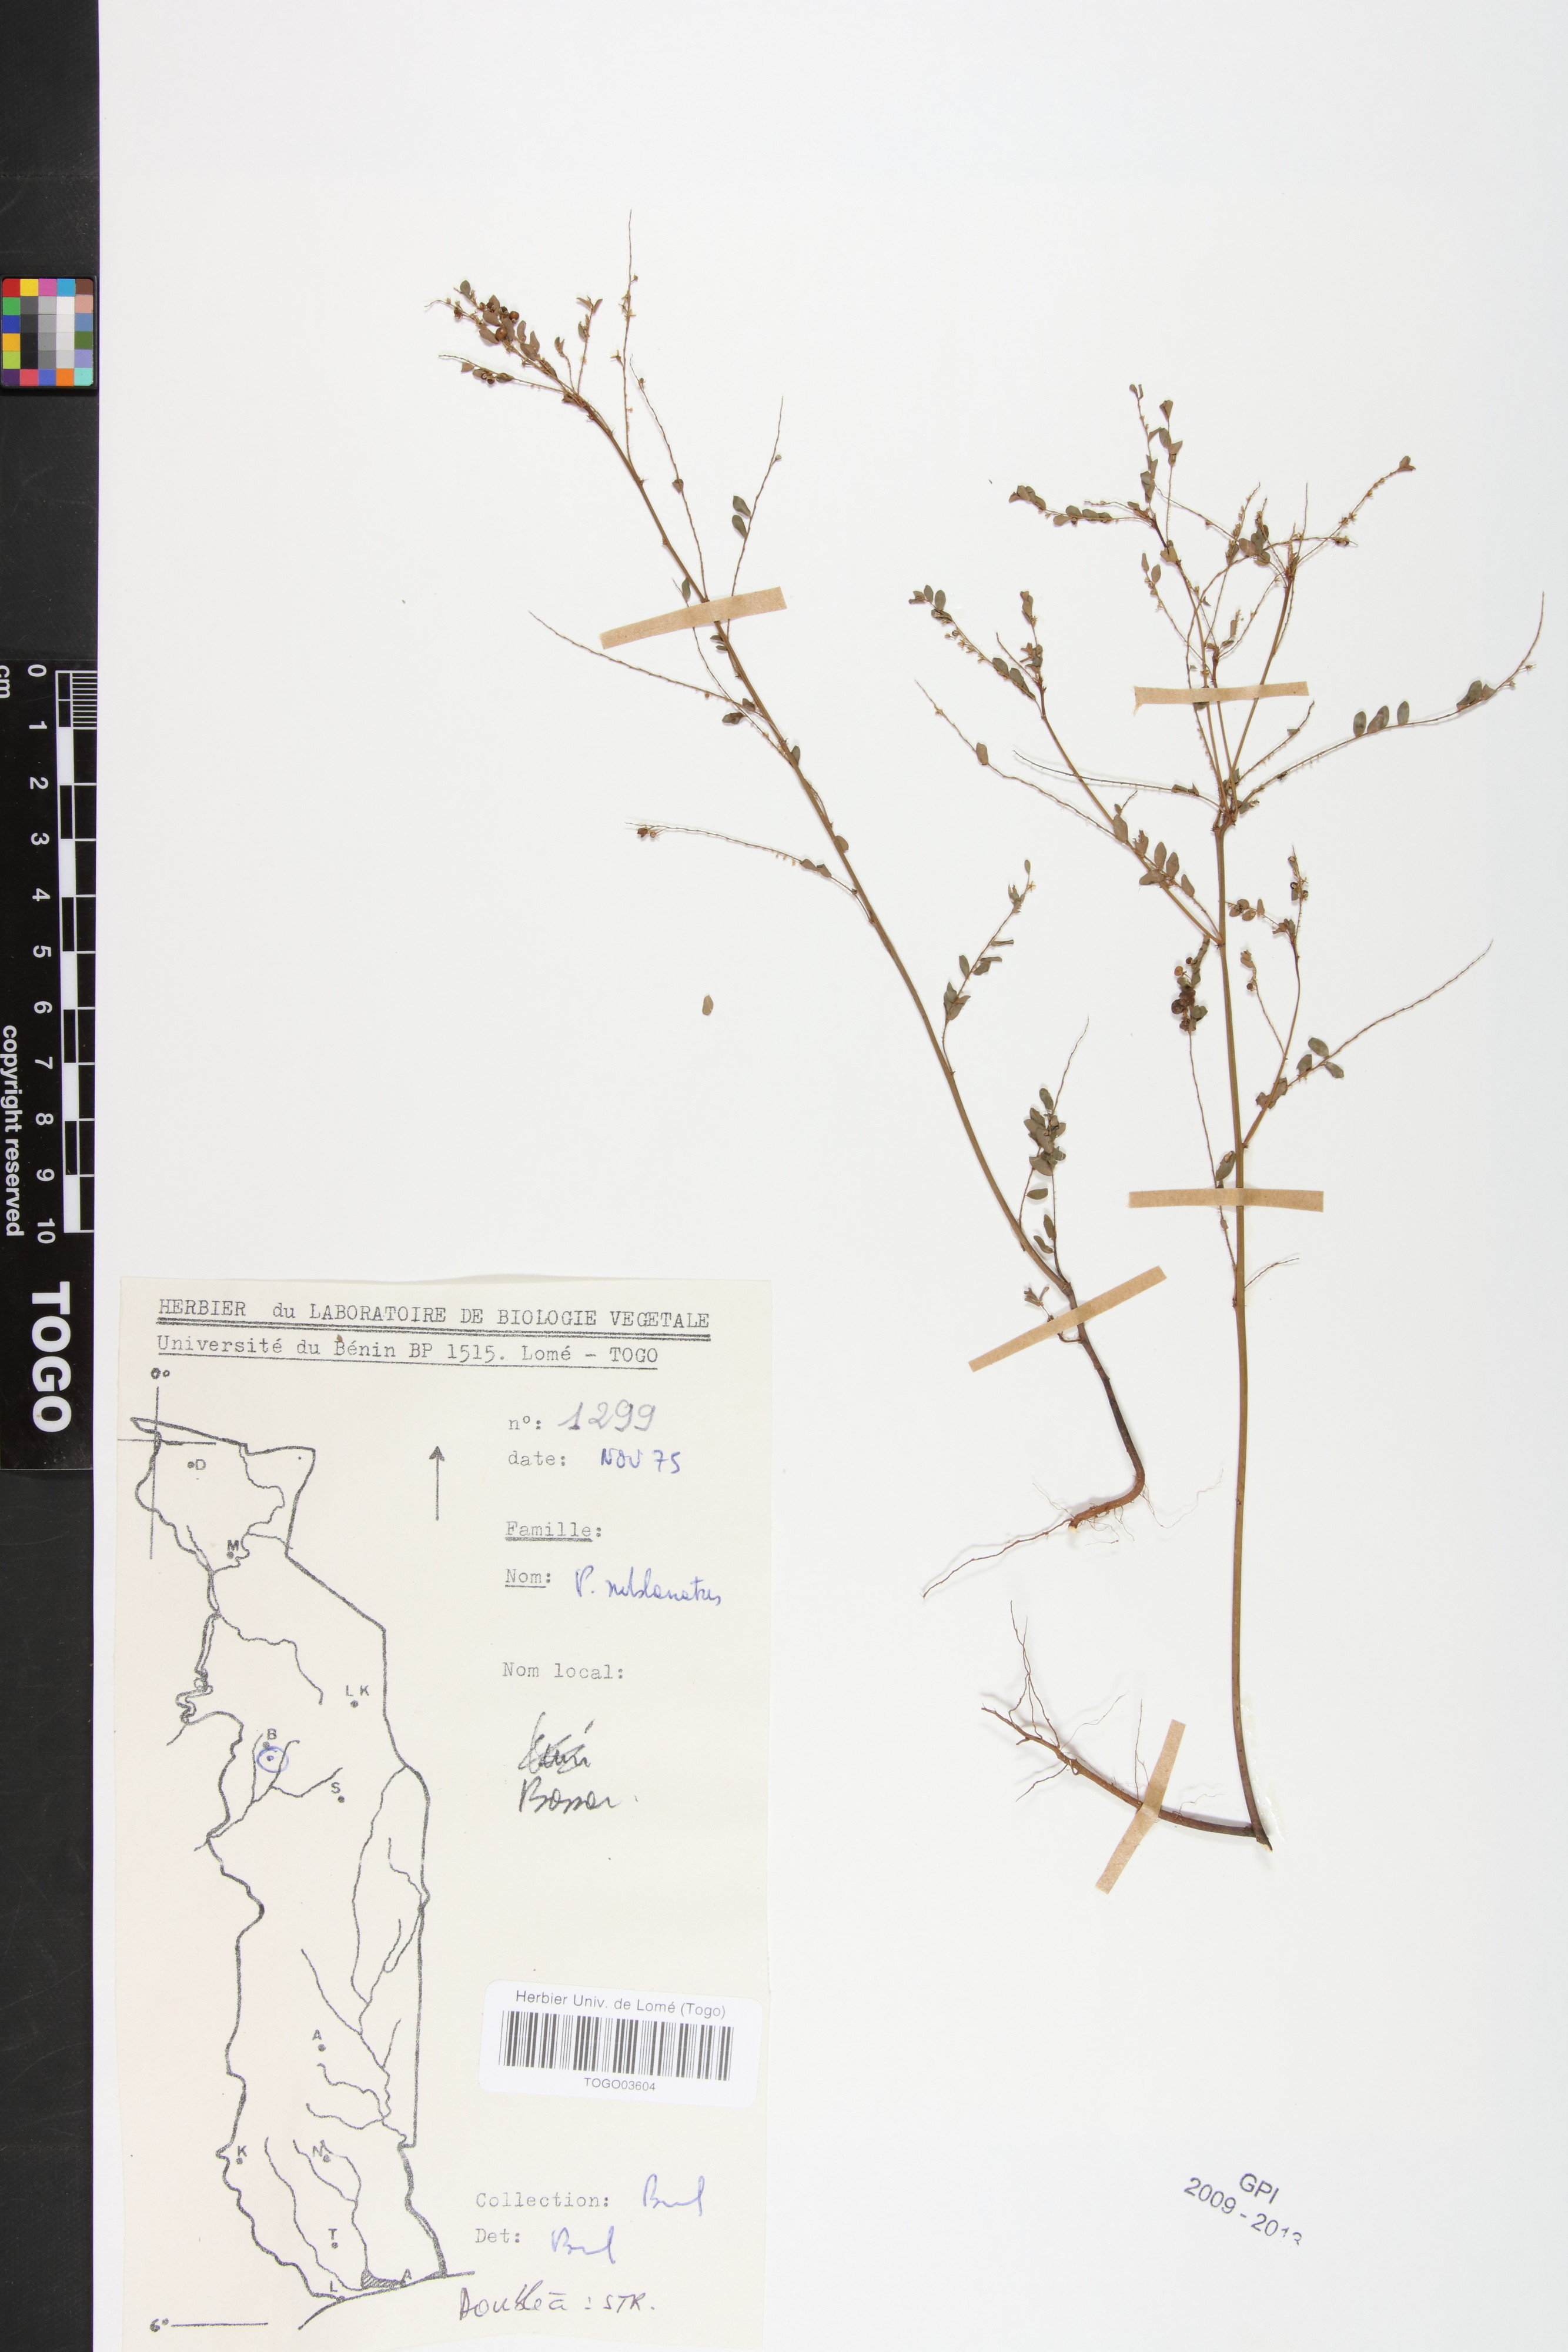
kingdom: Plantae
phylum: Tracheophyta
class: Magnoliopsida
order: Malpighiales
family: Phyllanthaceae
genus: Phyllanthus
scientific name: Phyllanthus sublanatus
